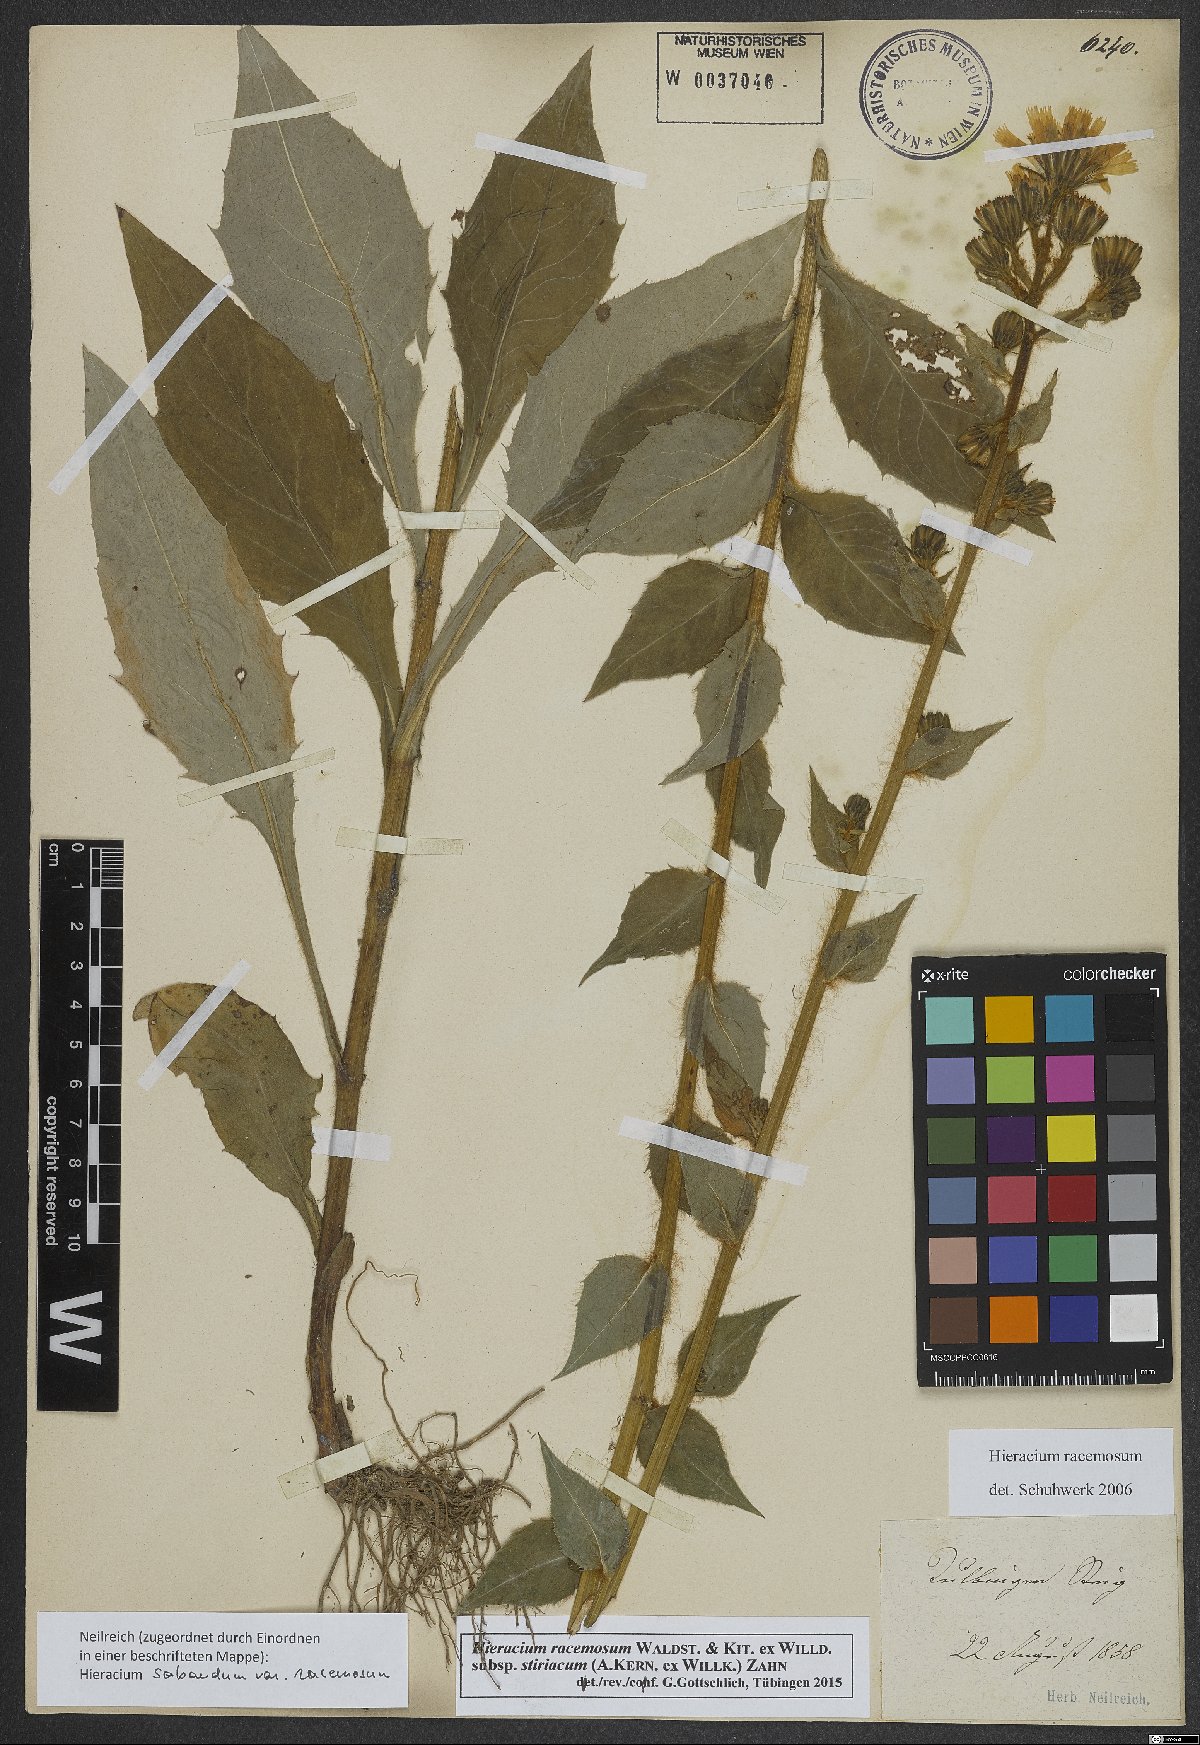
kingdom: Plantae
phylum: Tracheophyta
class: Magnoliopsida
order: Asterales
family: Asteraceae
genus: Hieracium
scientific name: Hieracium racemosum
